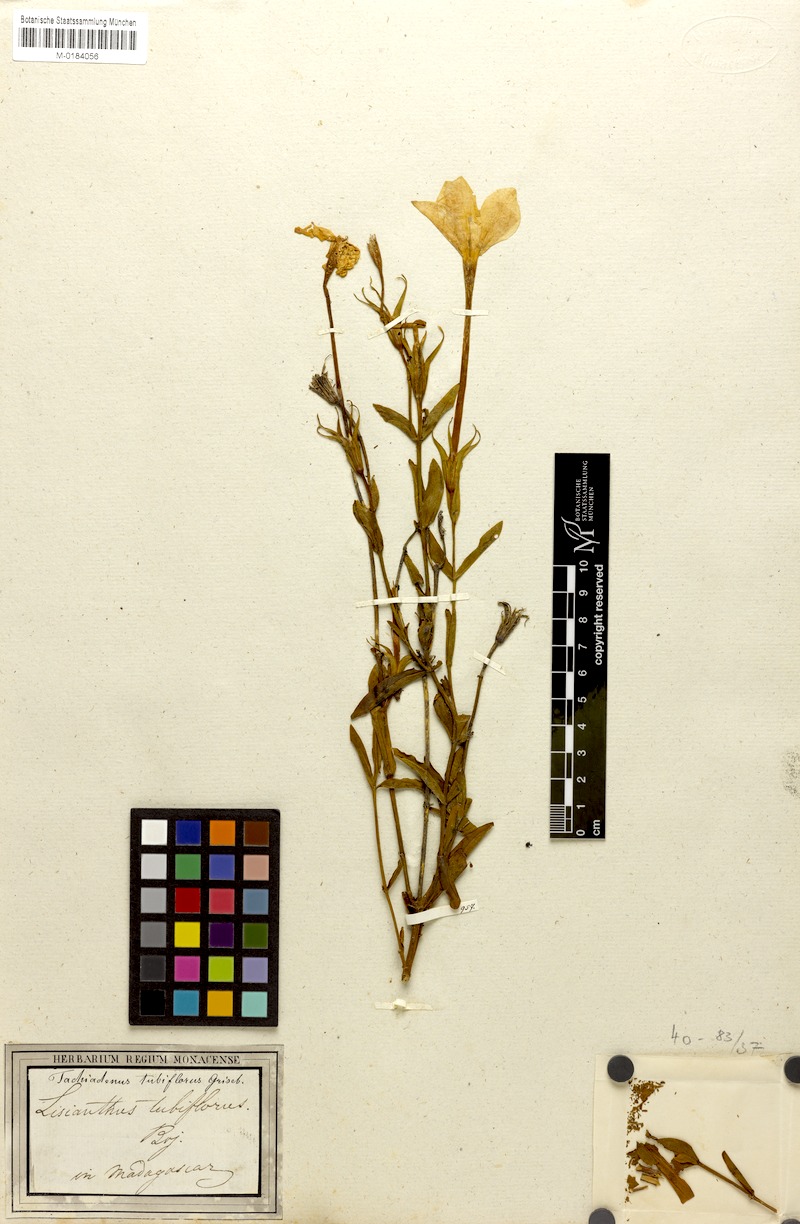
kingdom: Plantae
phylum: Tracheophyta
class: Magnoliopsida
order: Gentianales
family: Gentianaceae
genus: Tachiadenus
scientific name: Tachiadenus tubiflorus
